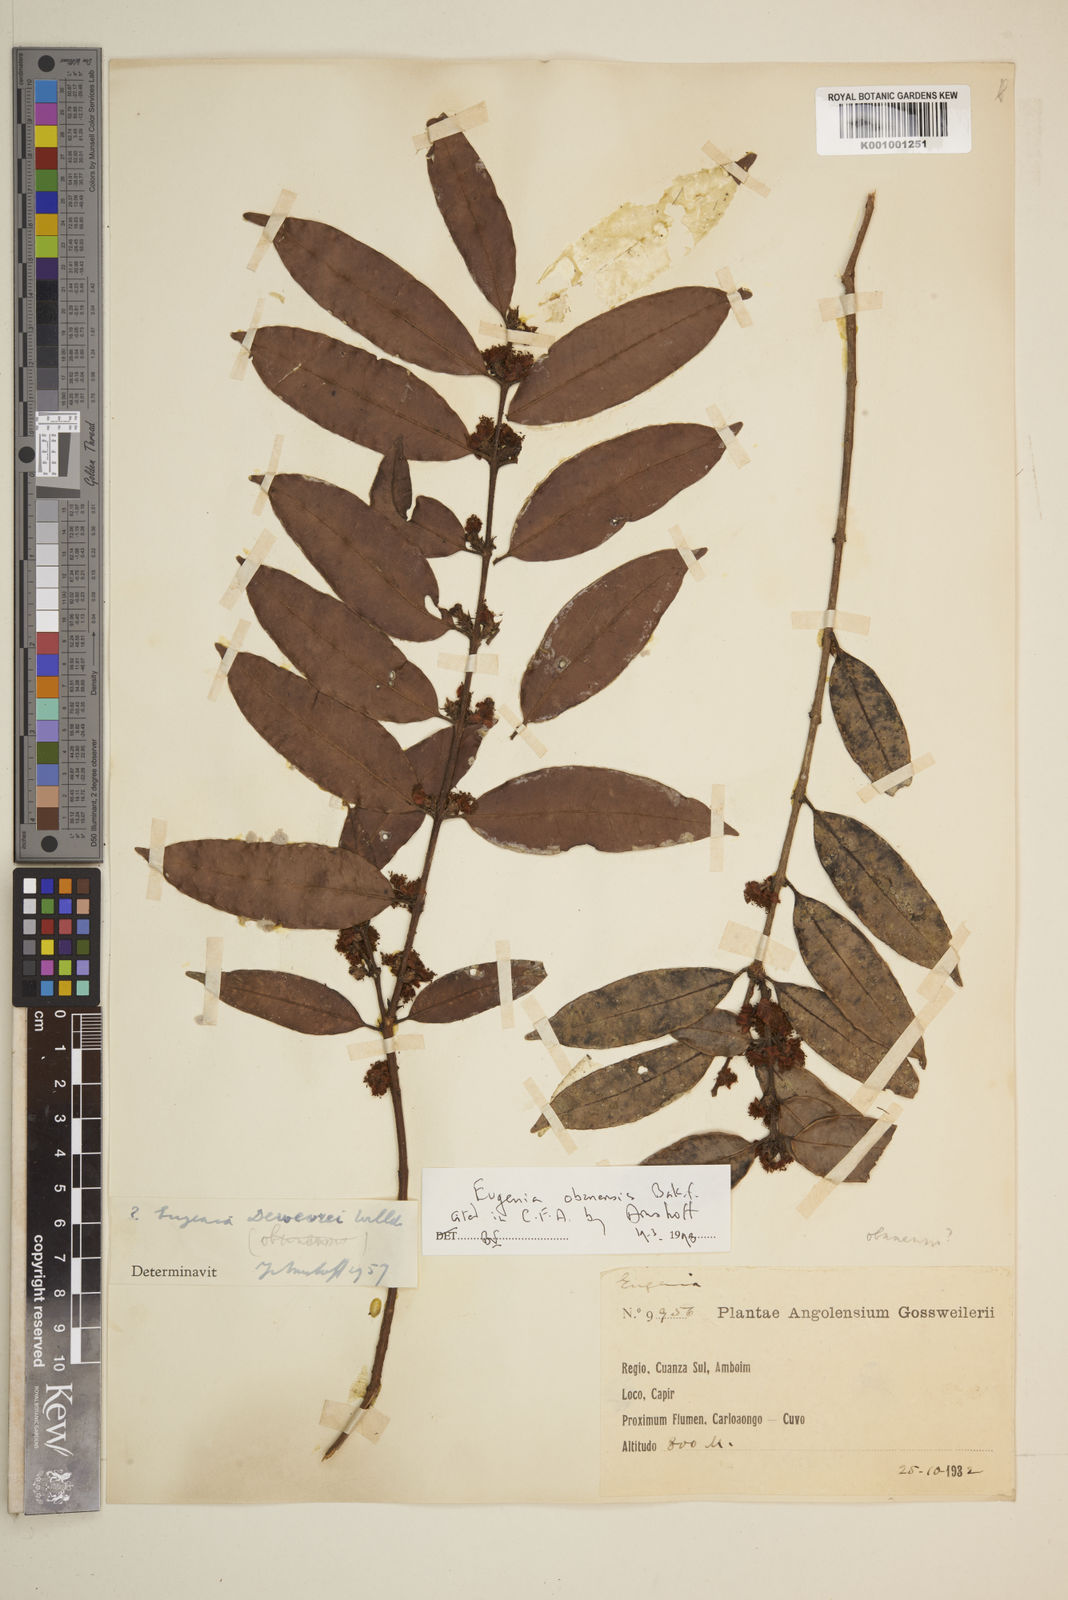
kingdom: Plantae
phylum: Tracheophyta
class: Magnoliopsida
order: Myrtales
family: Myrtaceae
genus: Eugenia
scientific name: Eugenia dewevrei
